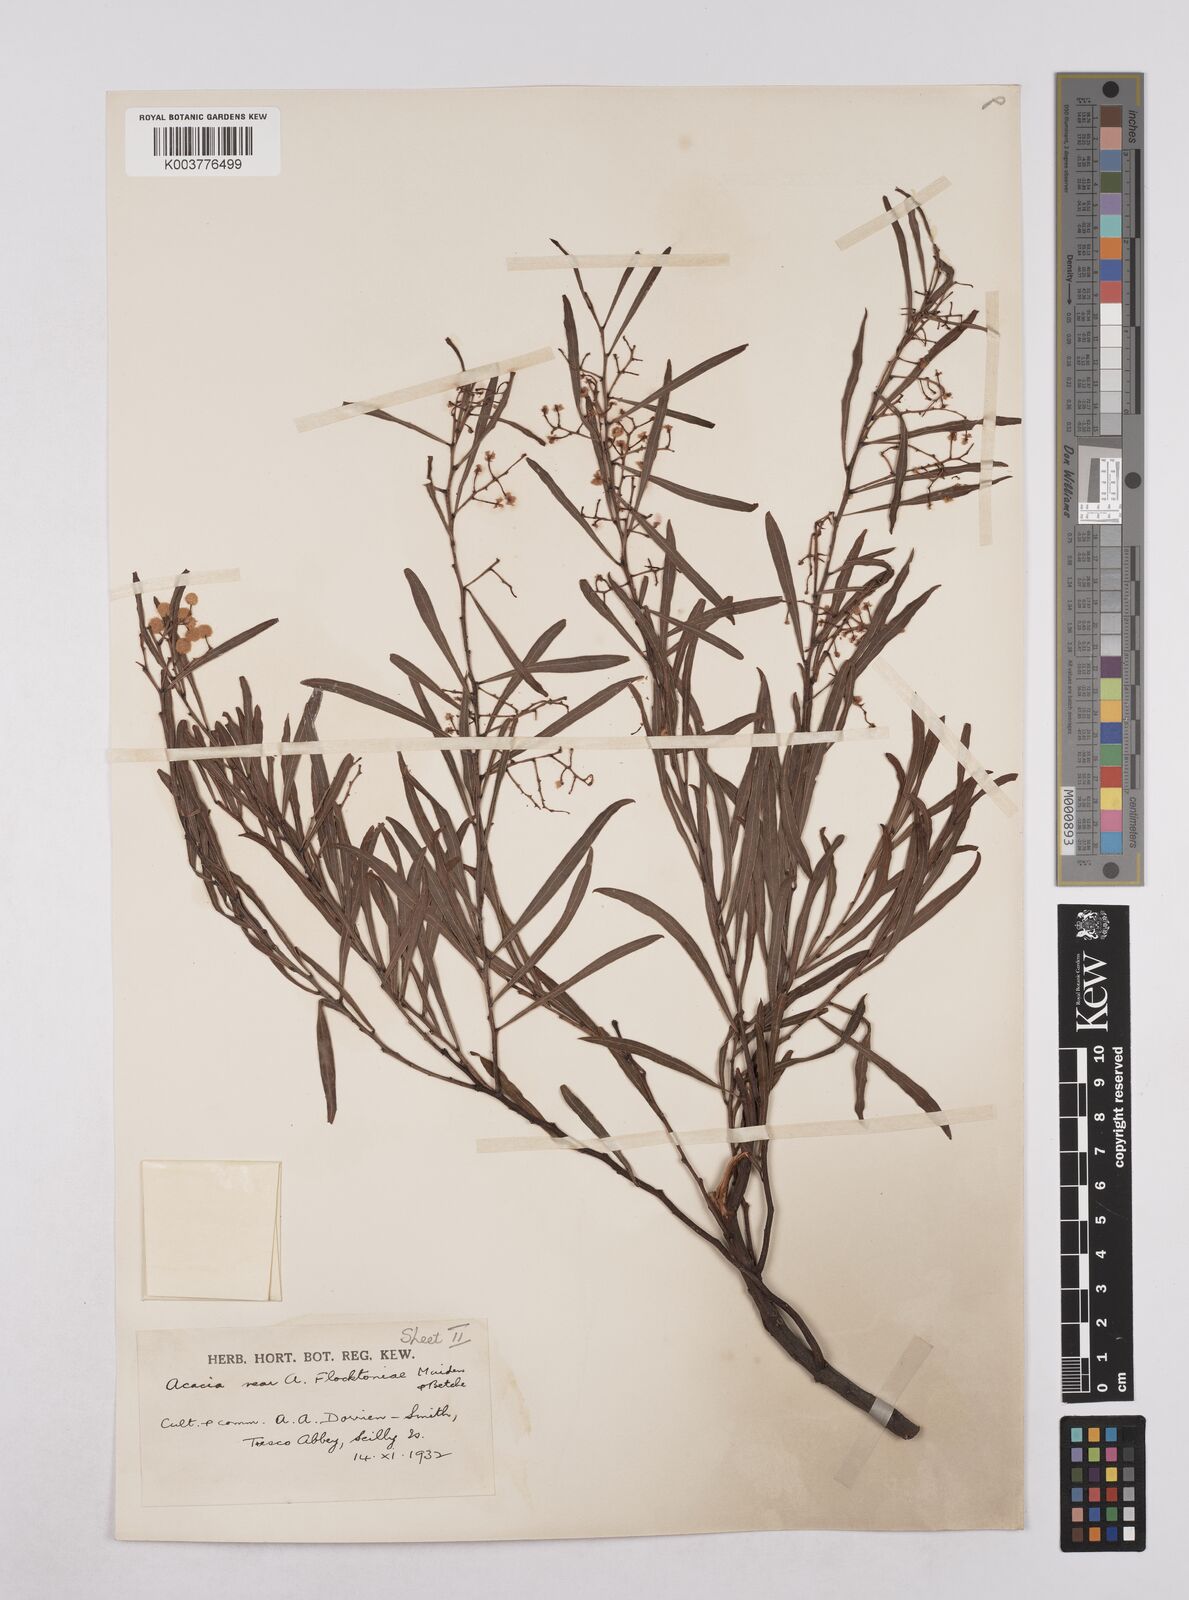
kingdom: Plantae
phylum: Tracheophyta
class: Magnoliopsida
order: Fabales
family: Fabaceae
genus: Acacia
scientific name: Acacia flocktoniae
